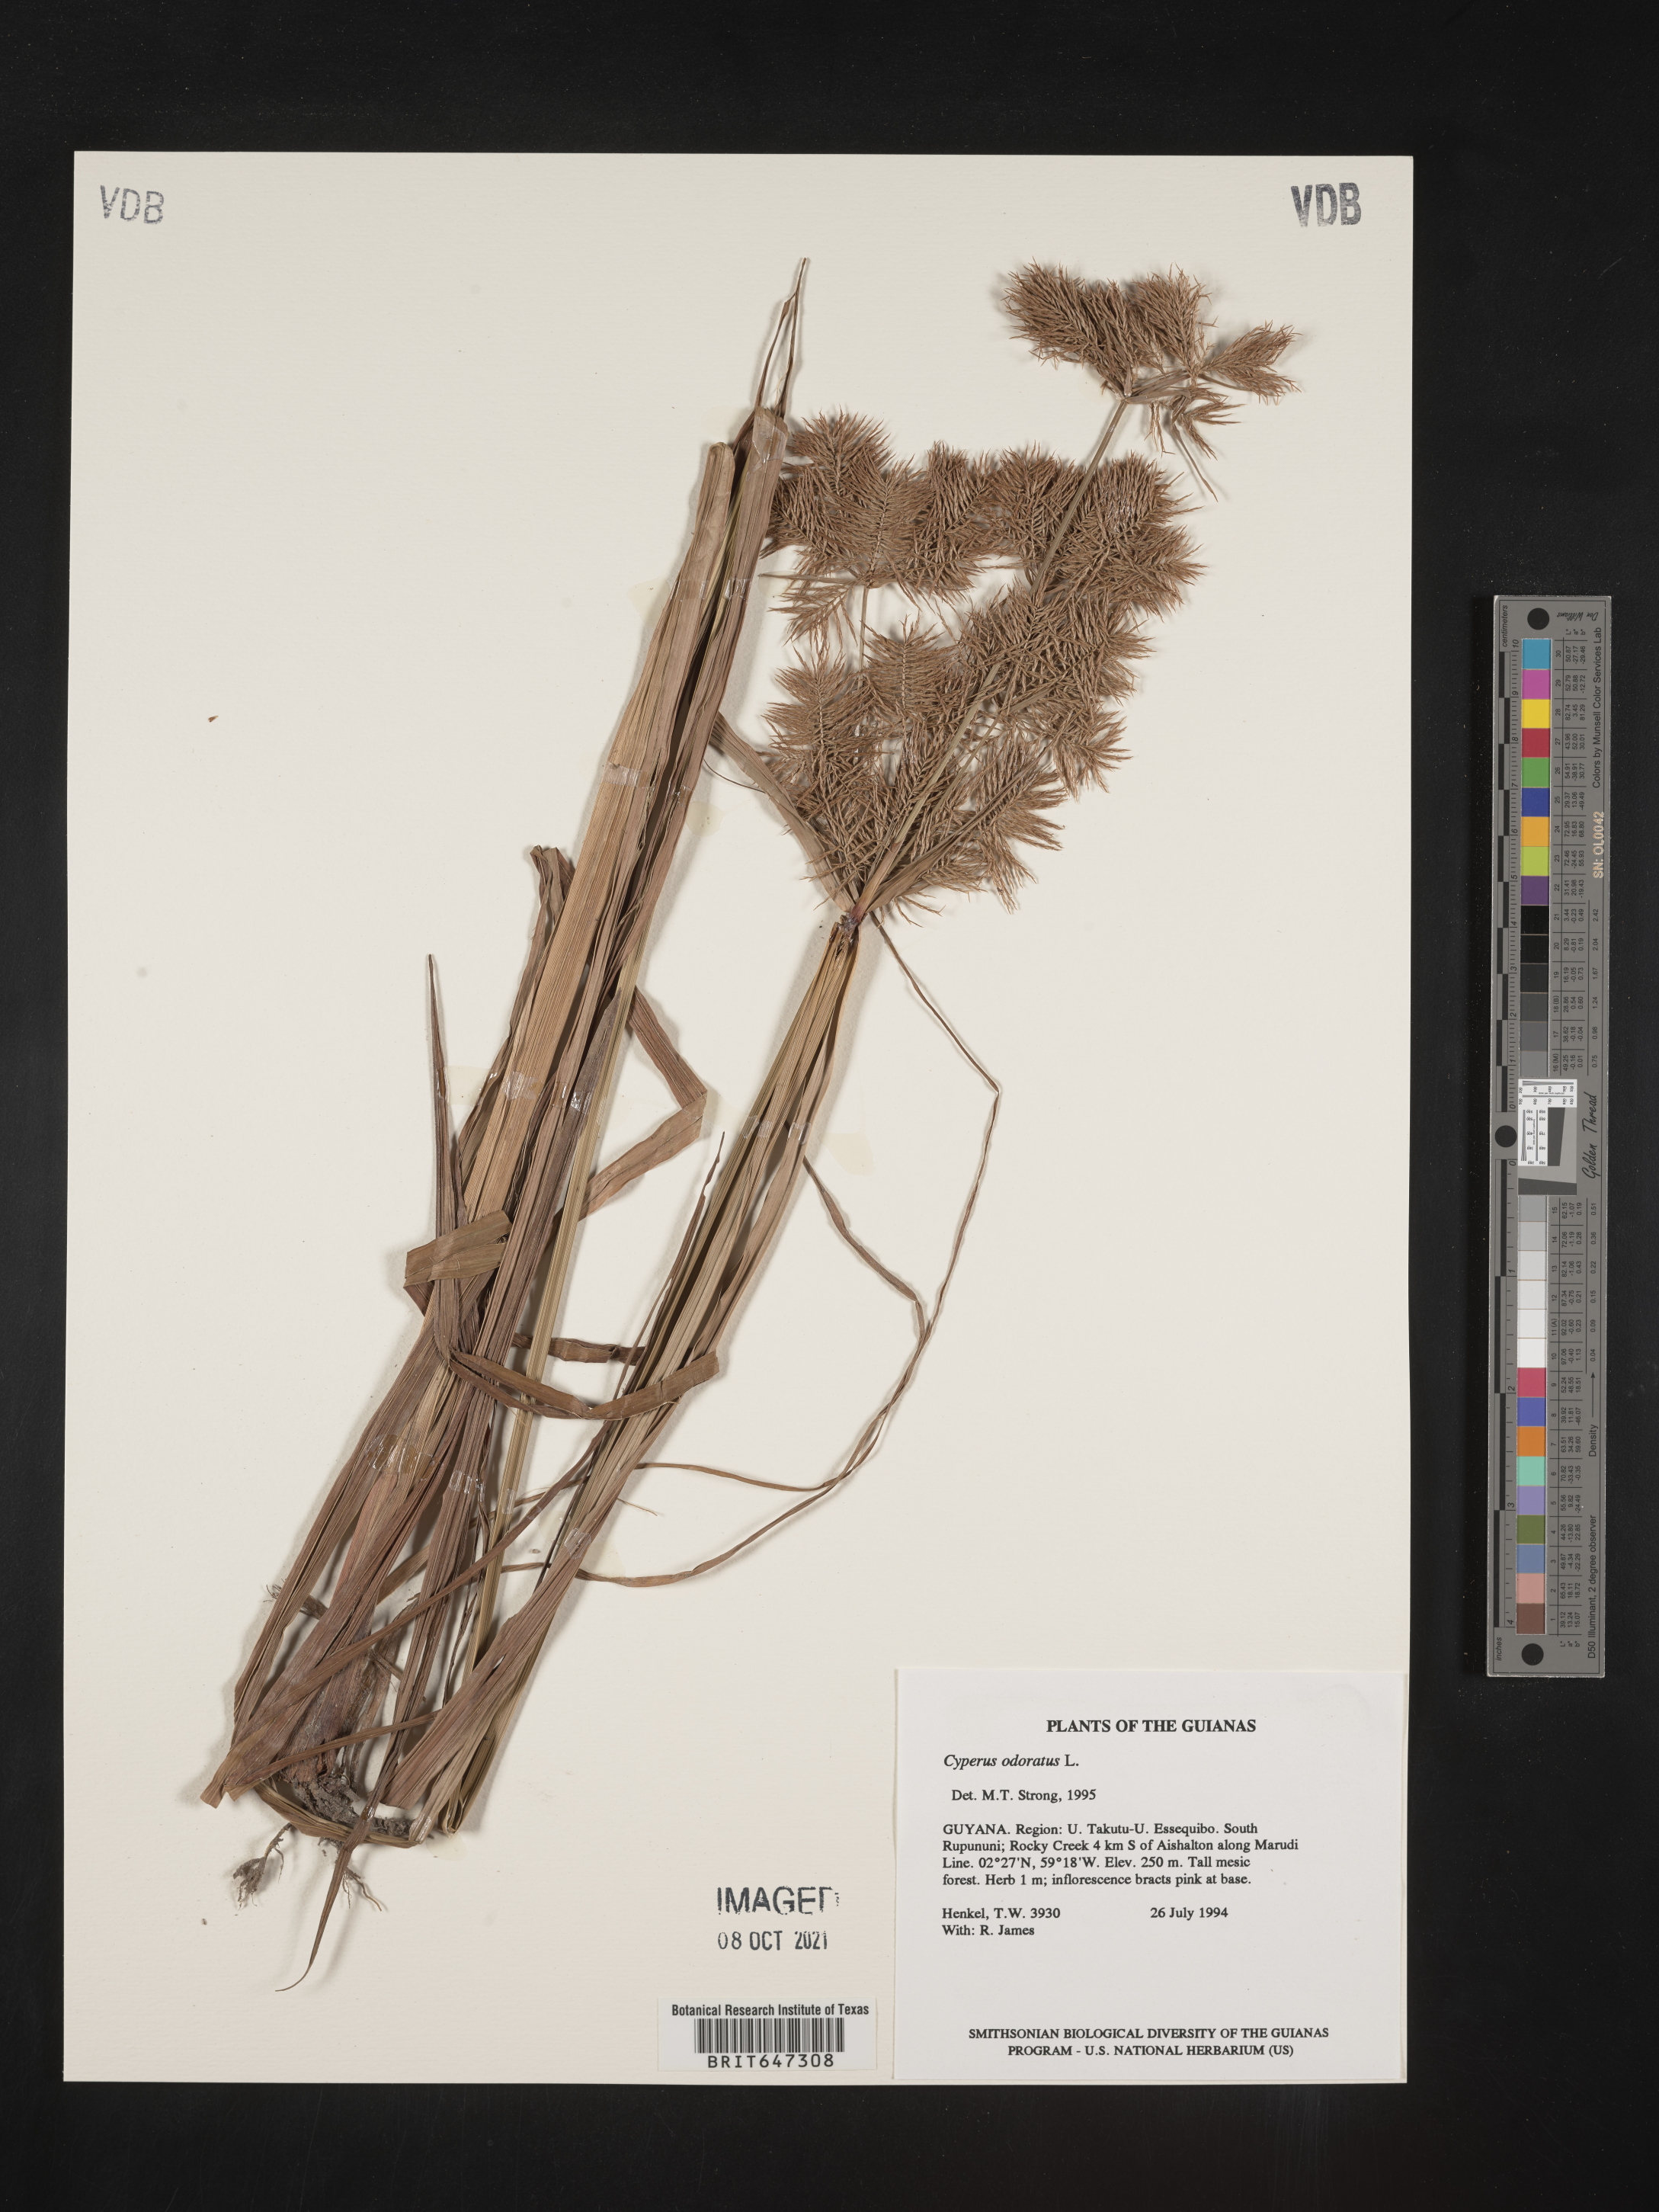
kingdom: Plantae
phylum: Tracheophyta
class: Liliopsida
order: Poales
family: Cyperaceae
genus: Cyperus
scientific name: Cyperus odoratus
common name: Fragrant flatsedge
